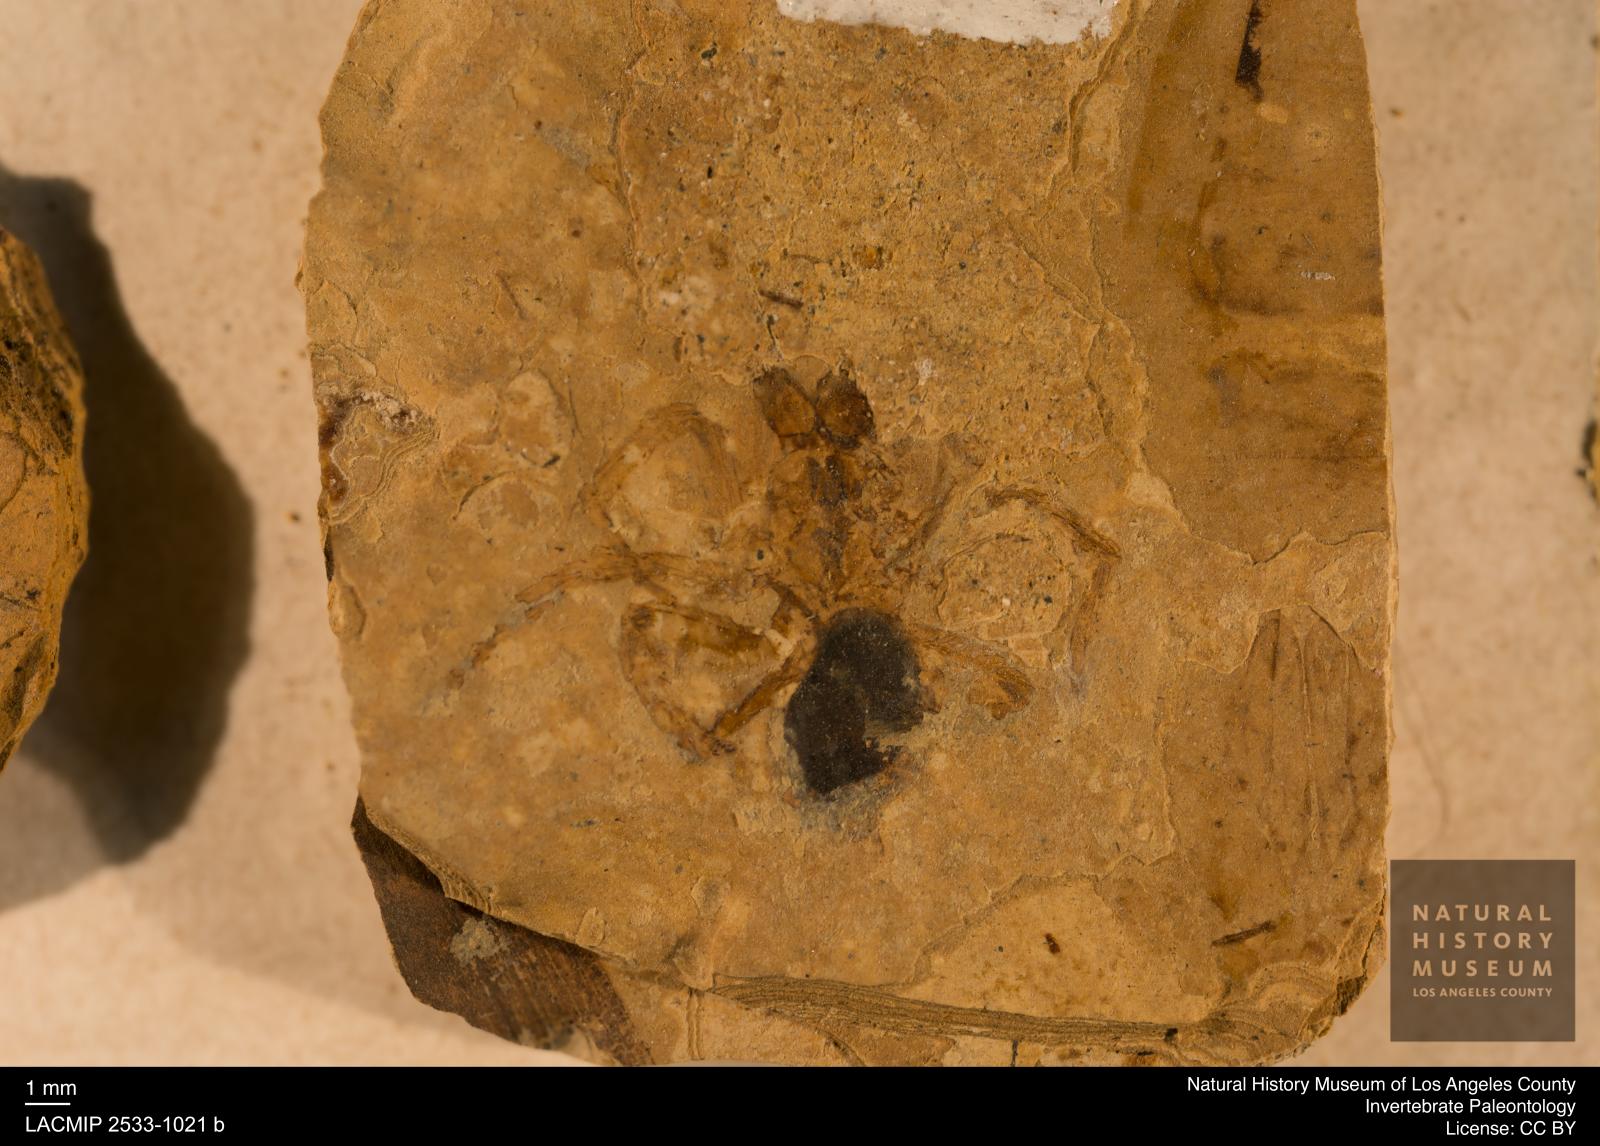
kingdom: Animalia
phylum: Arthropoda
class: Arachnida
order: Araneae
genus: Elvina
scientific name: Elvina Argyroneta antiqua
